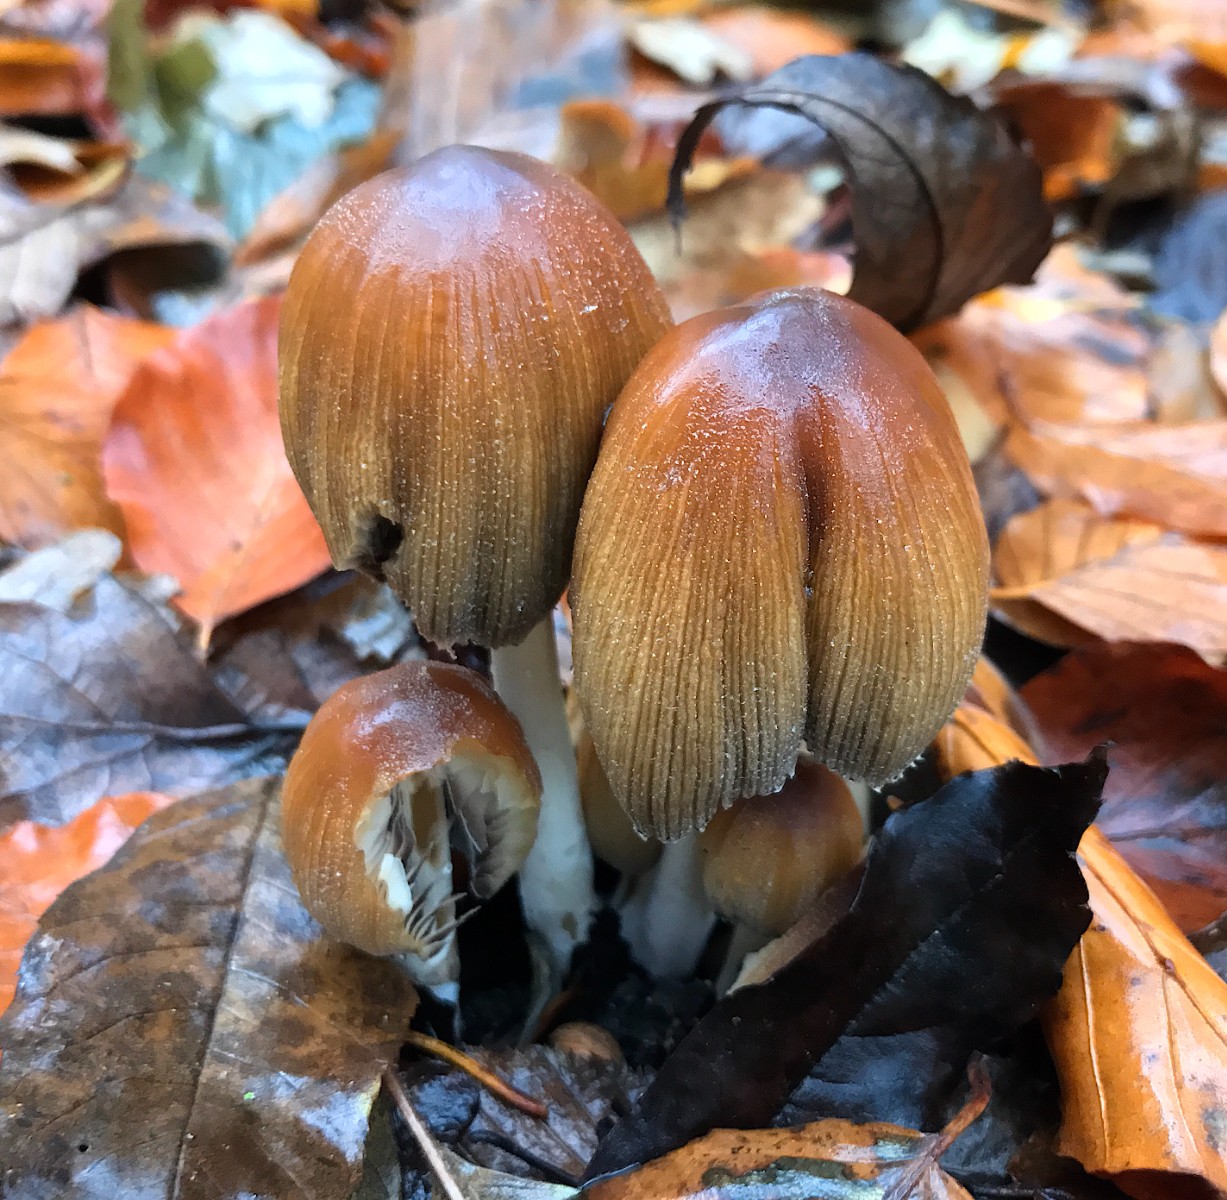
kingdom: Fungi
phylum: Basidiomycota
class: Agaricomycetes
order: Agaricales
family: Psathyrellaceae
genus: Coprinellus
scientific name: Coprinellus micaceus
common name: glimmer-blækhat
